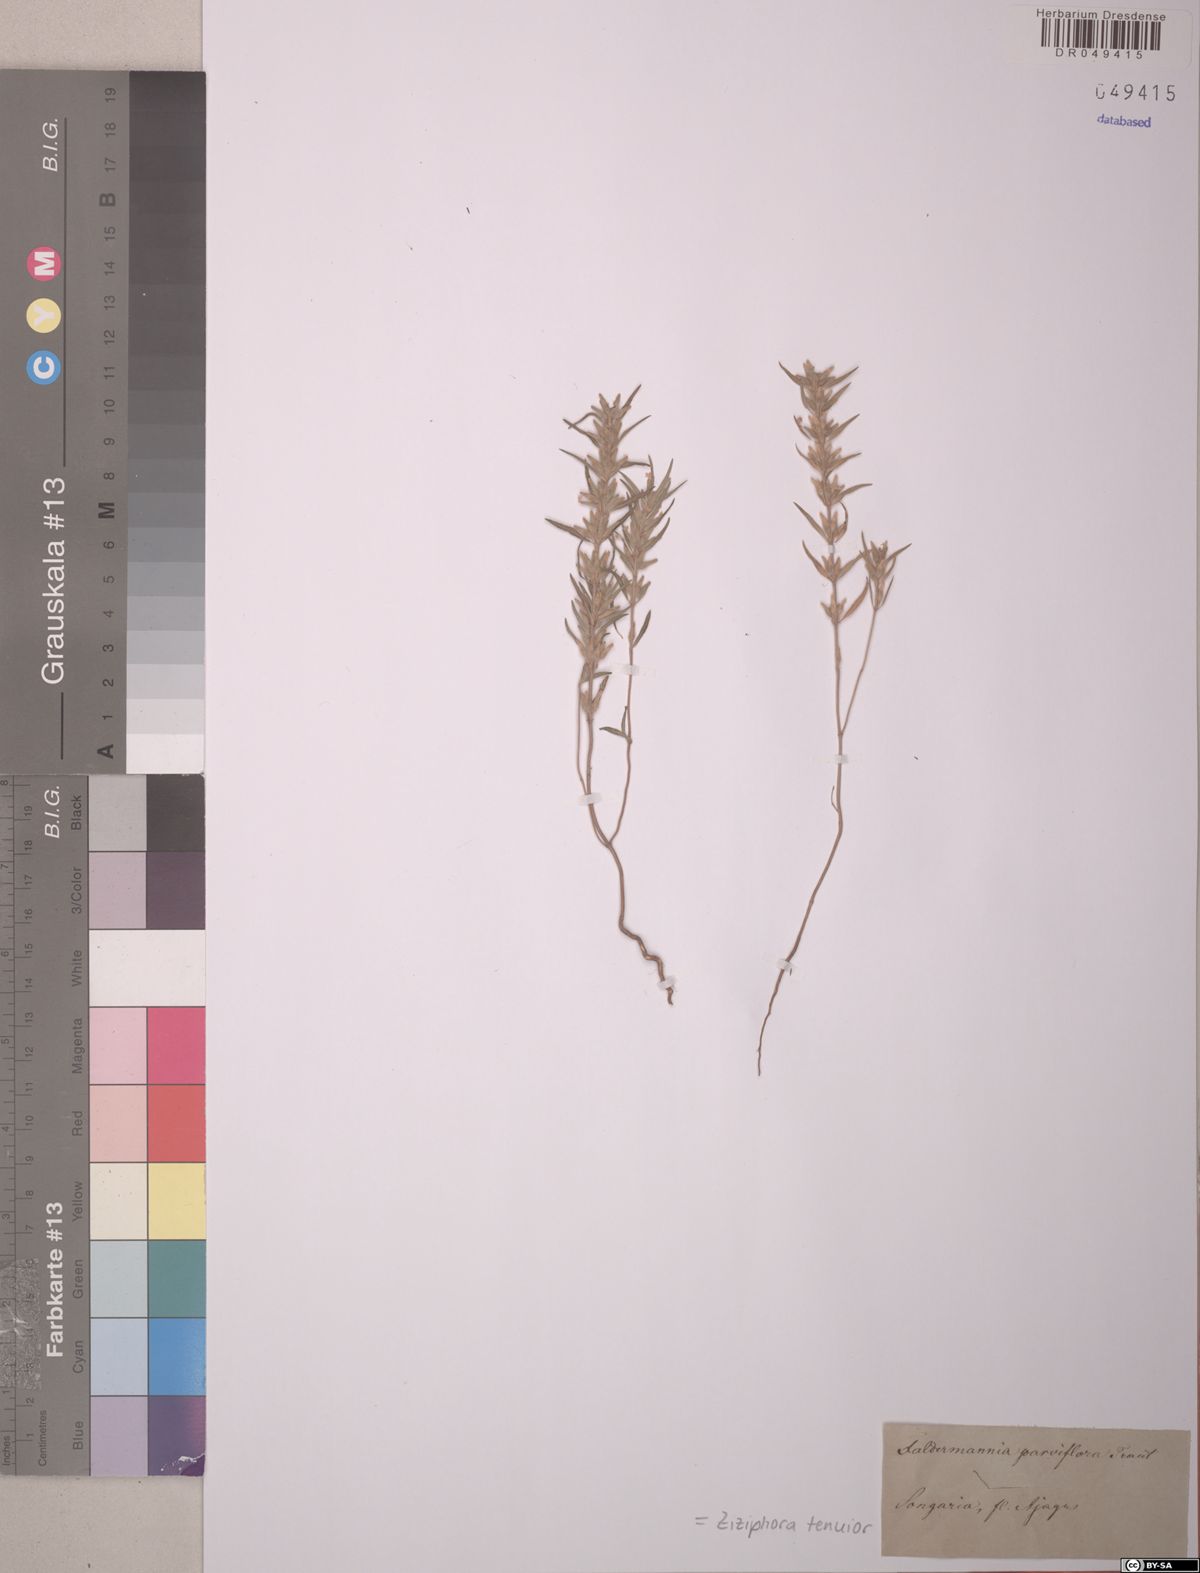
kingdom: Plantae
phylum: Tracheophyta
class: Magnoliopsida
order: Lamiales
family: Lamiaceae
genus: Ziziphora
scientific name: Ziziphora tenuior
